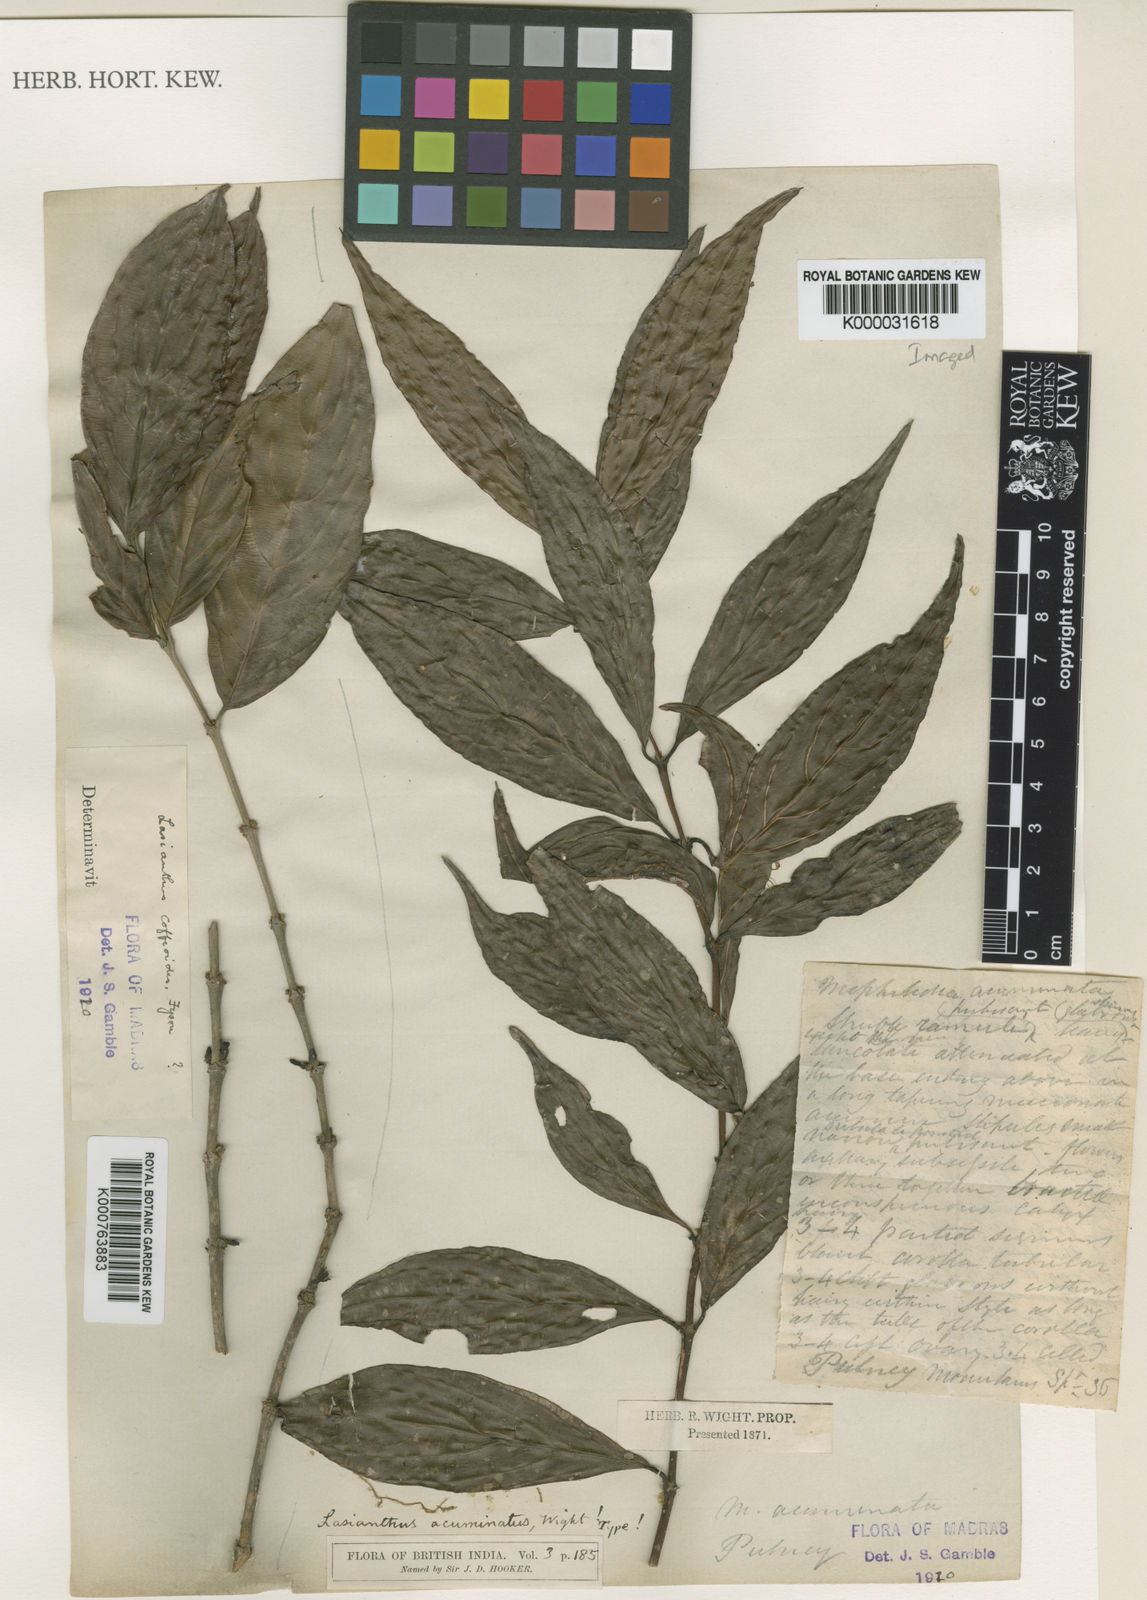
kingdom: Plantae
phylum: Tracheophyta
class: Magnoliopsida
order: Gentianales
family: Rubiaceae
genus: Lasianthus
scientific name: Lasianthus acuminatus
